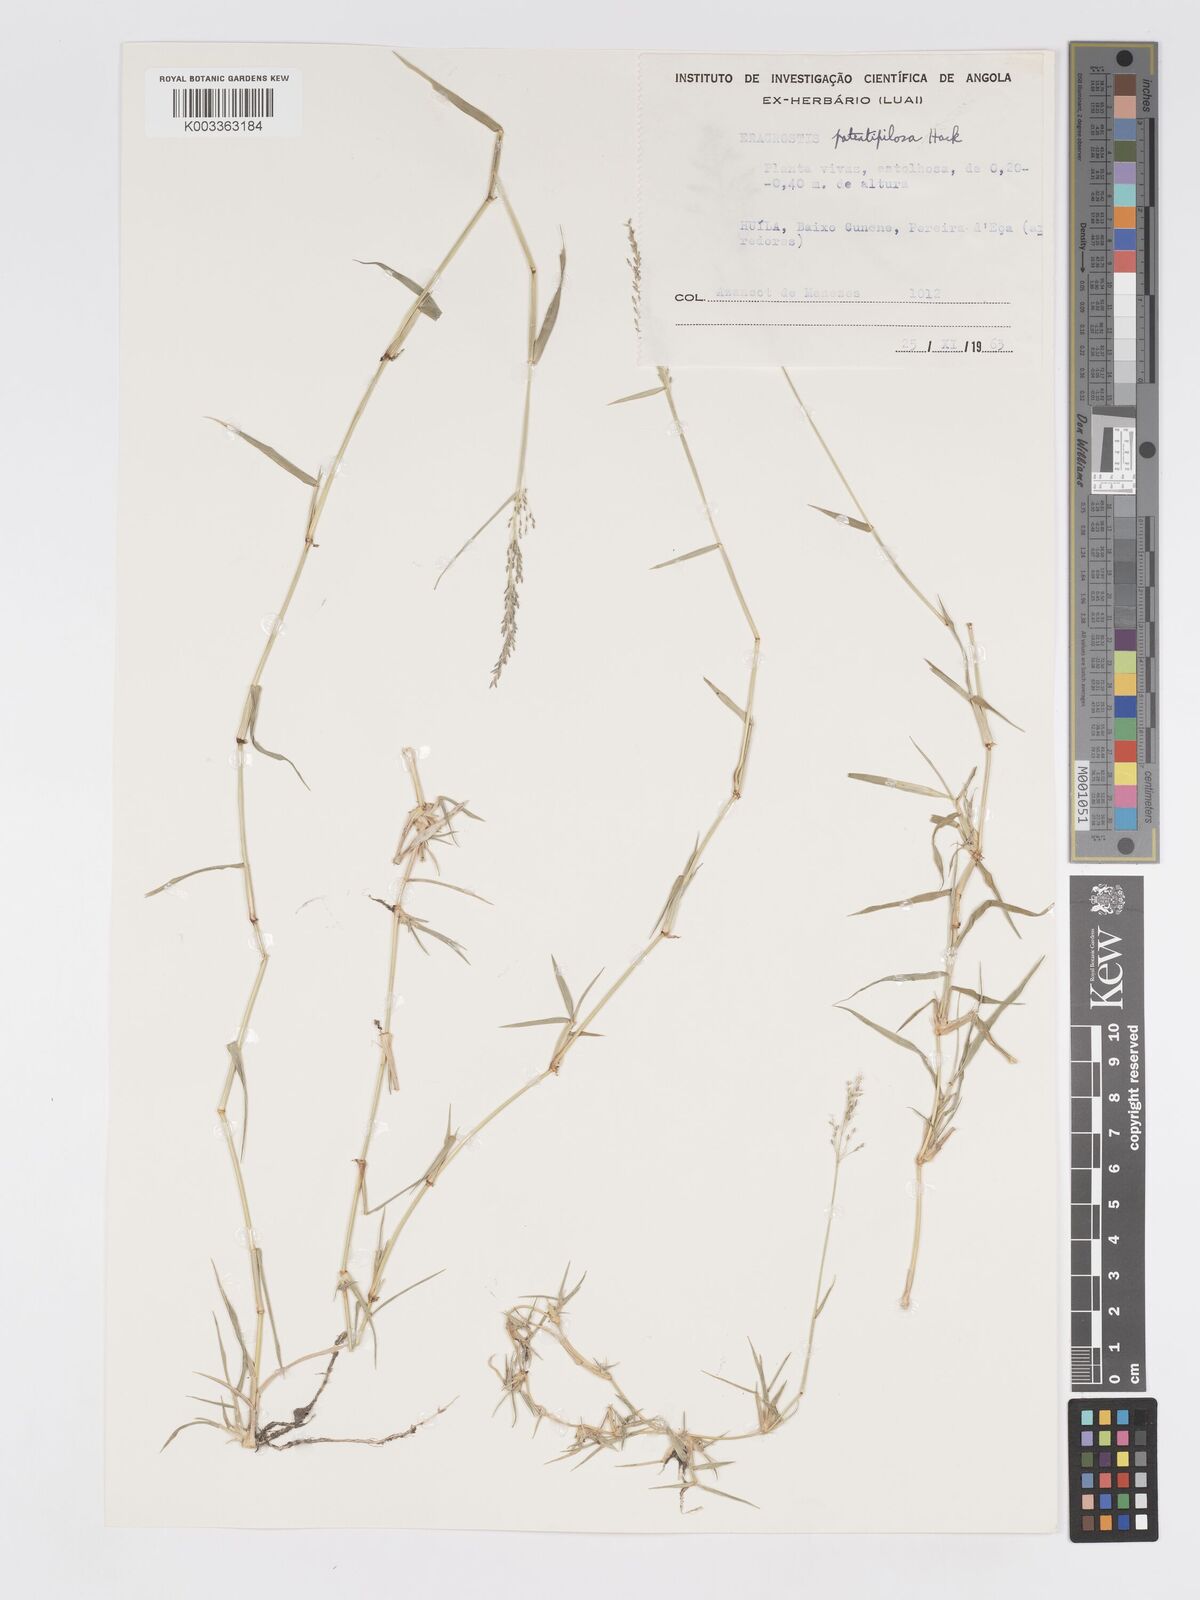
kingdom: Plantae
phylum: Tracheophyta
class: Liliopsida
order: Poales
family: Poaceae
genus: Eragrostis
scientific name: Eragrostis cylindriflora
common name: Cylinderflower lovegrass
